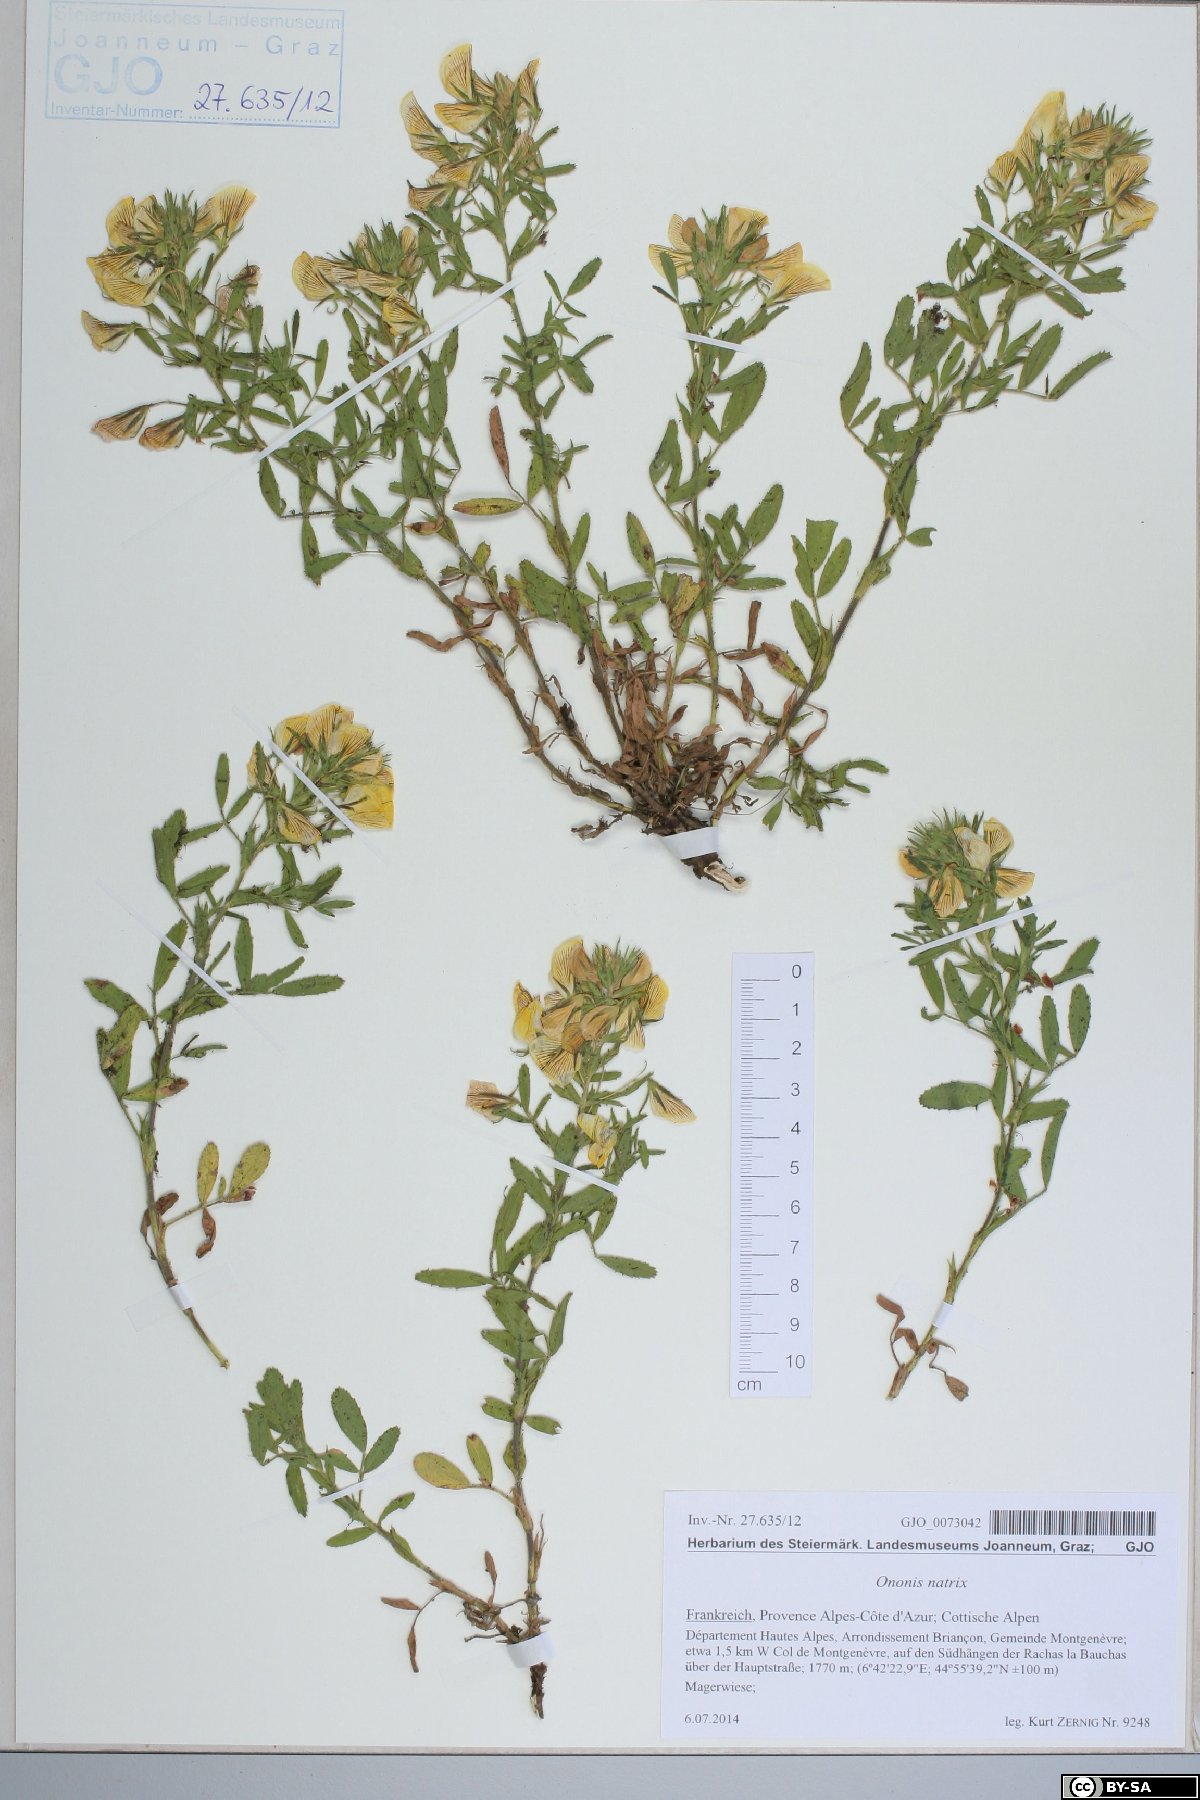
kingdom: Plantae
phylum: Tracheophyta
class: Magnoliopsida
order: Fabales
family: Fabaceae
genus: Ononis
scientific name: Ononis natrix
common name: Yellow restharrow
